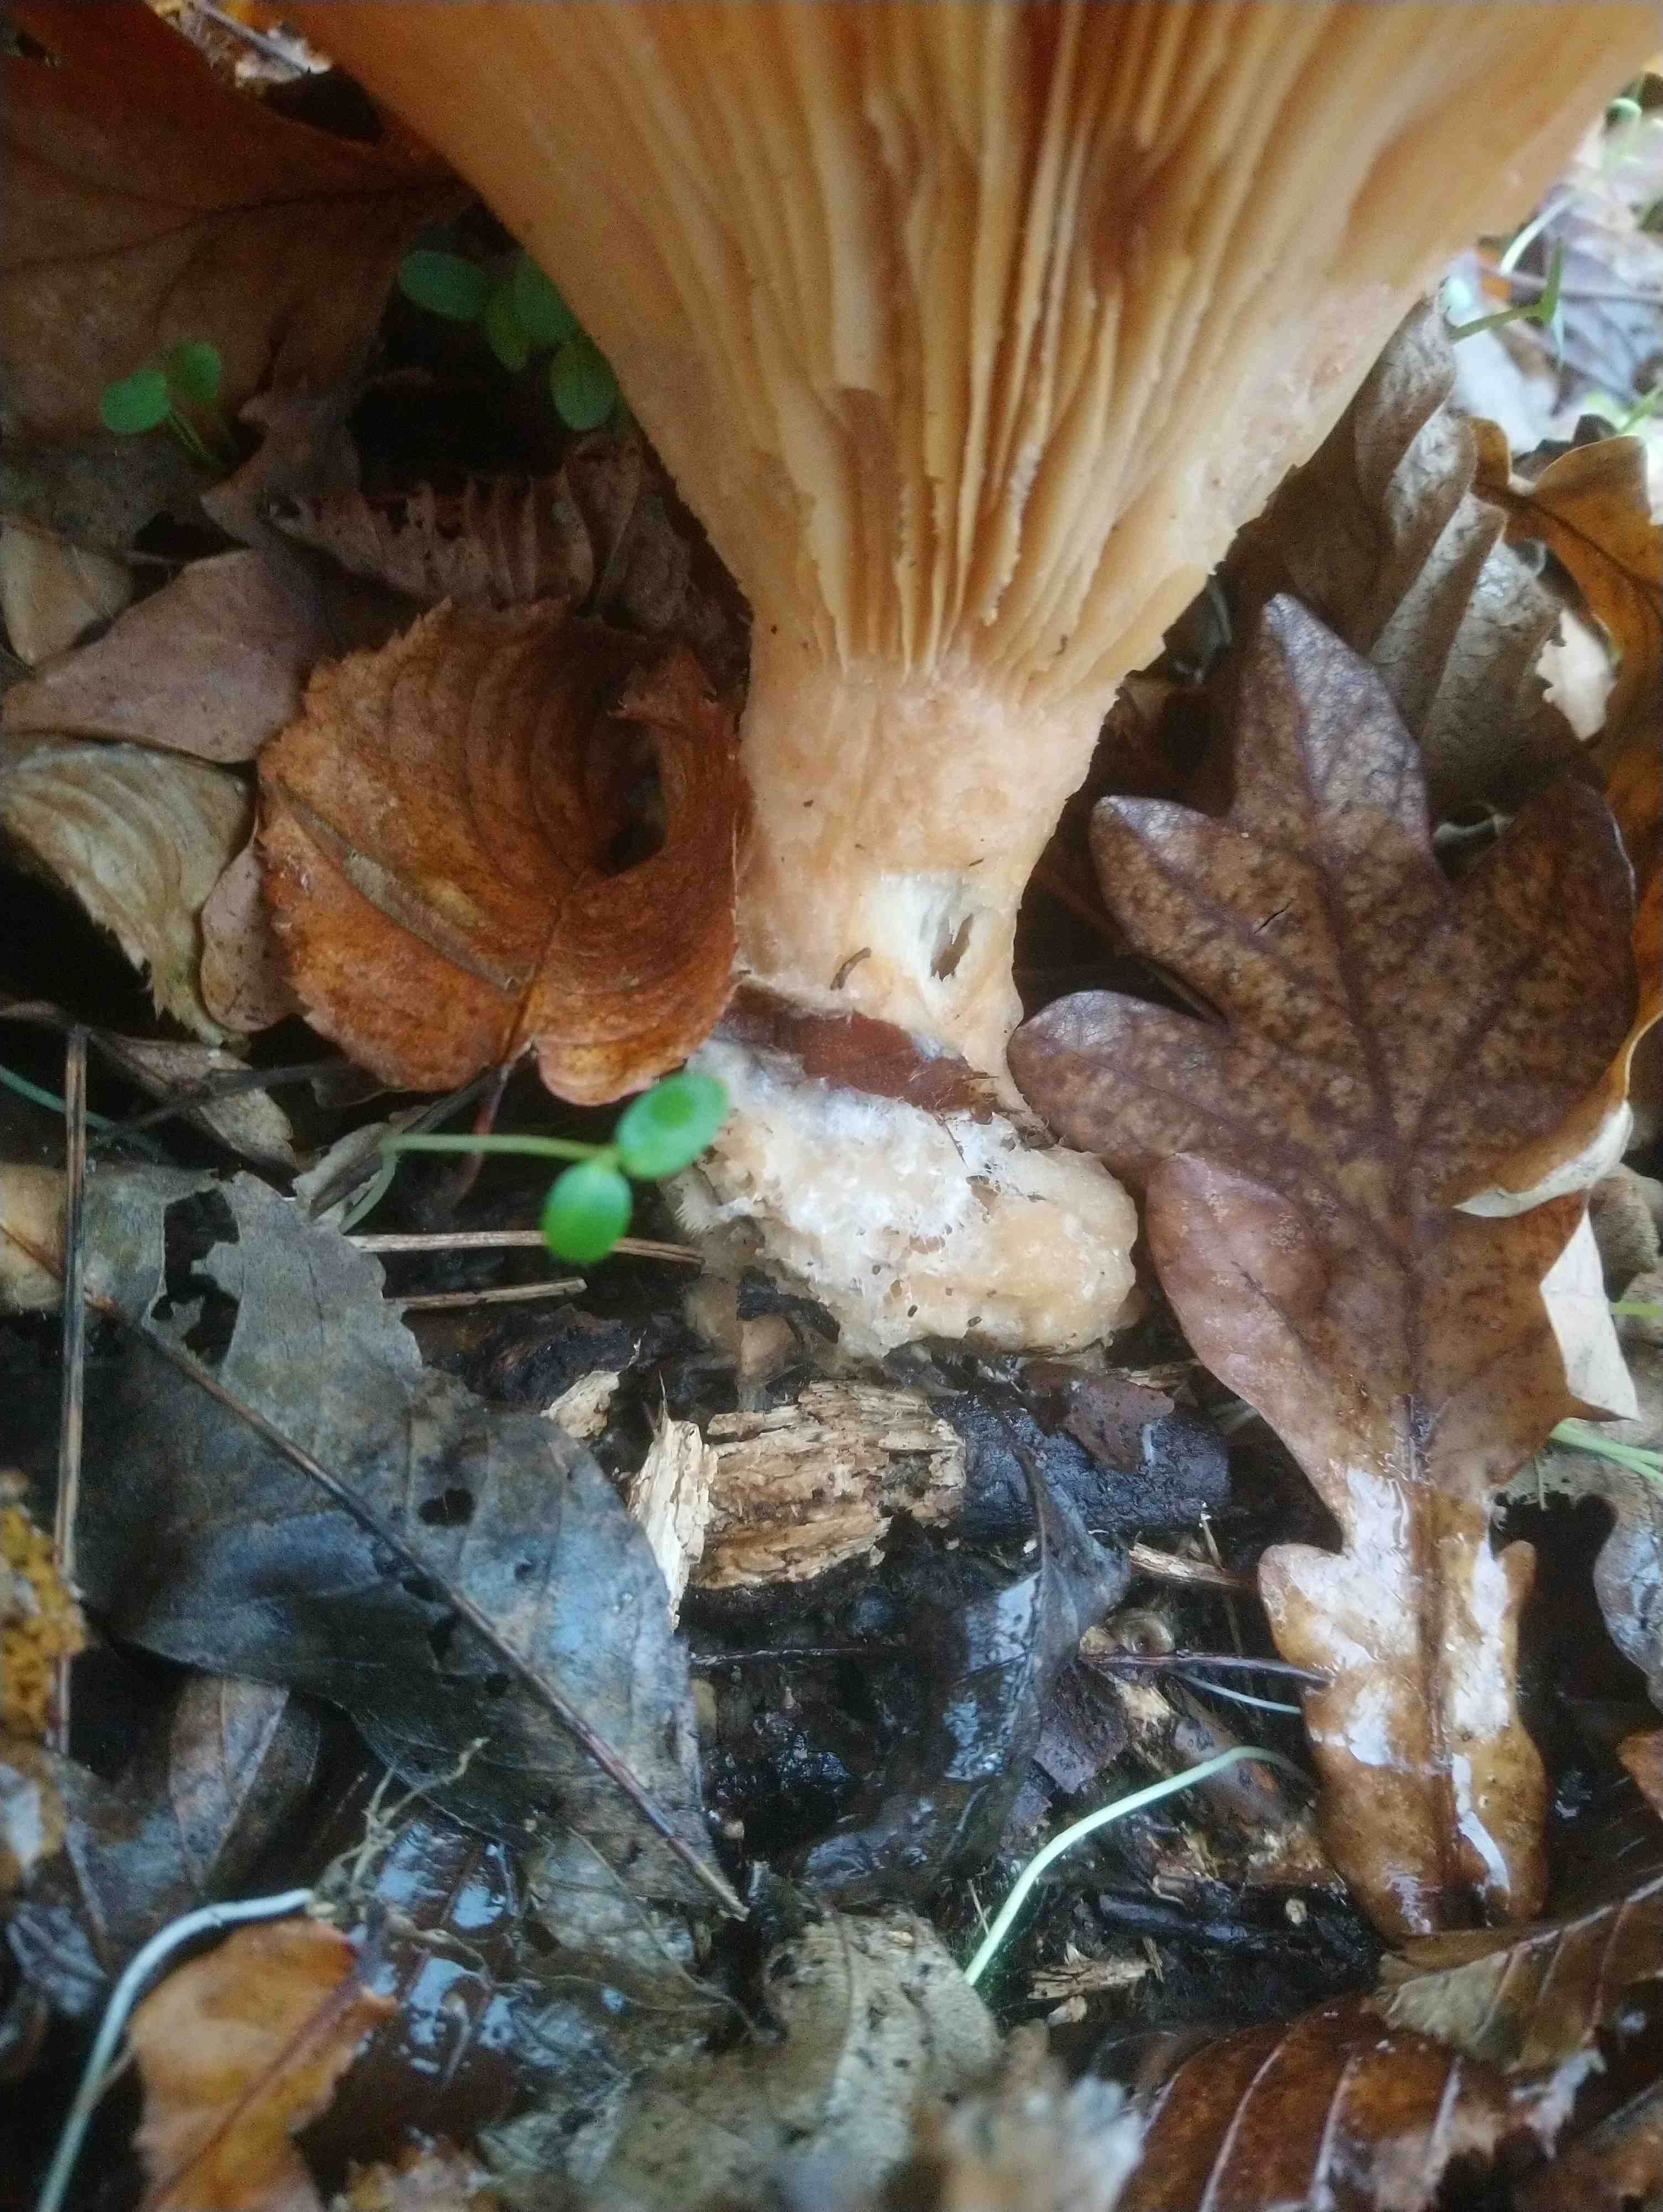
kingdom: Fungi
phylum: Basidiomycota
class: Agaricomycetes
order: Agaricales
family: Tricholomataceae
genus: Infundibulicybe
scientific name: Infundibulicybe geotropa
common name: stor tragthat
